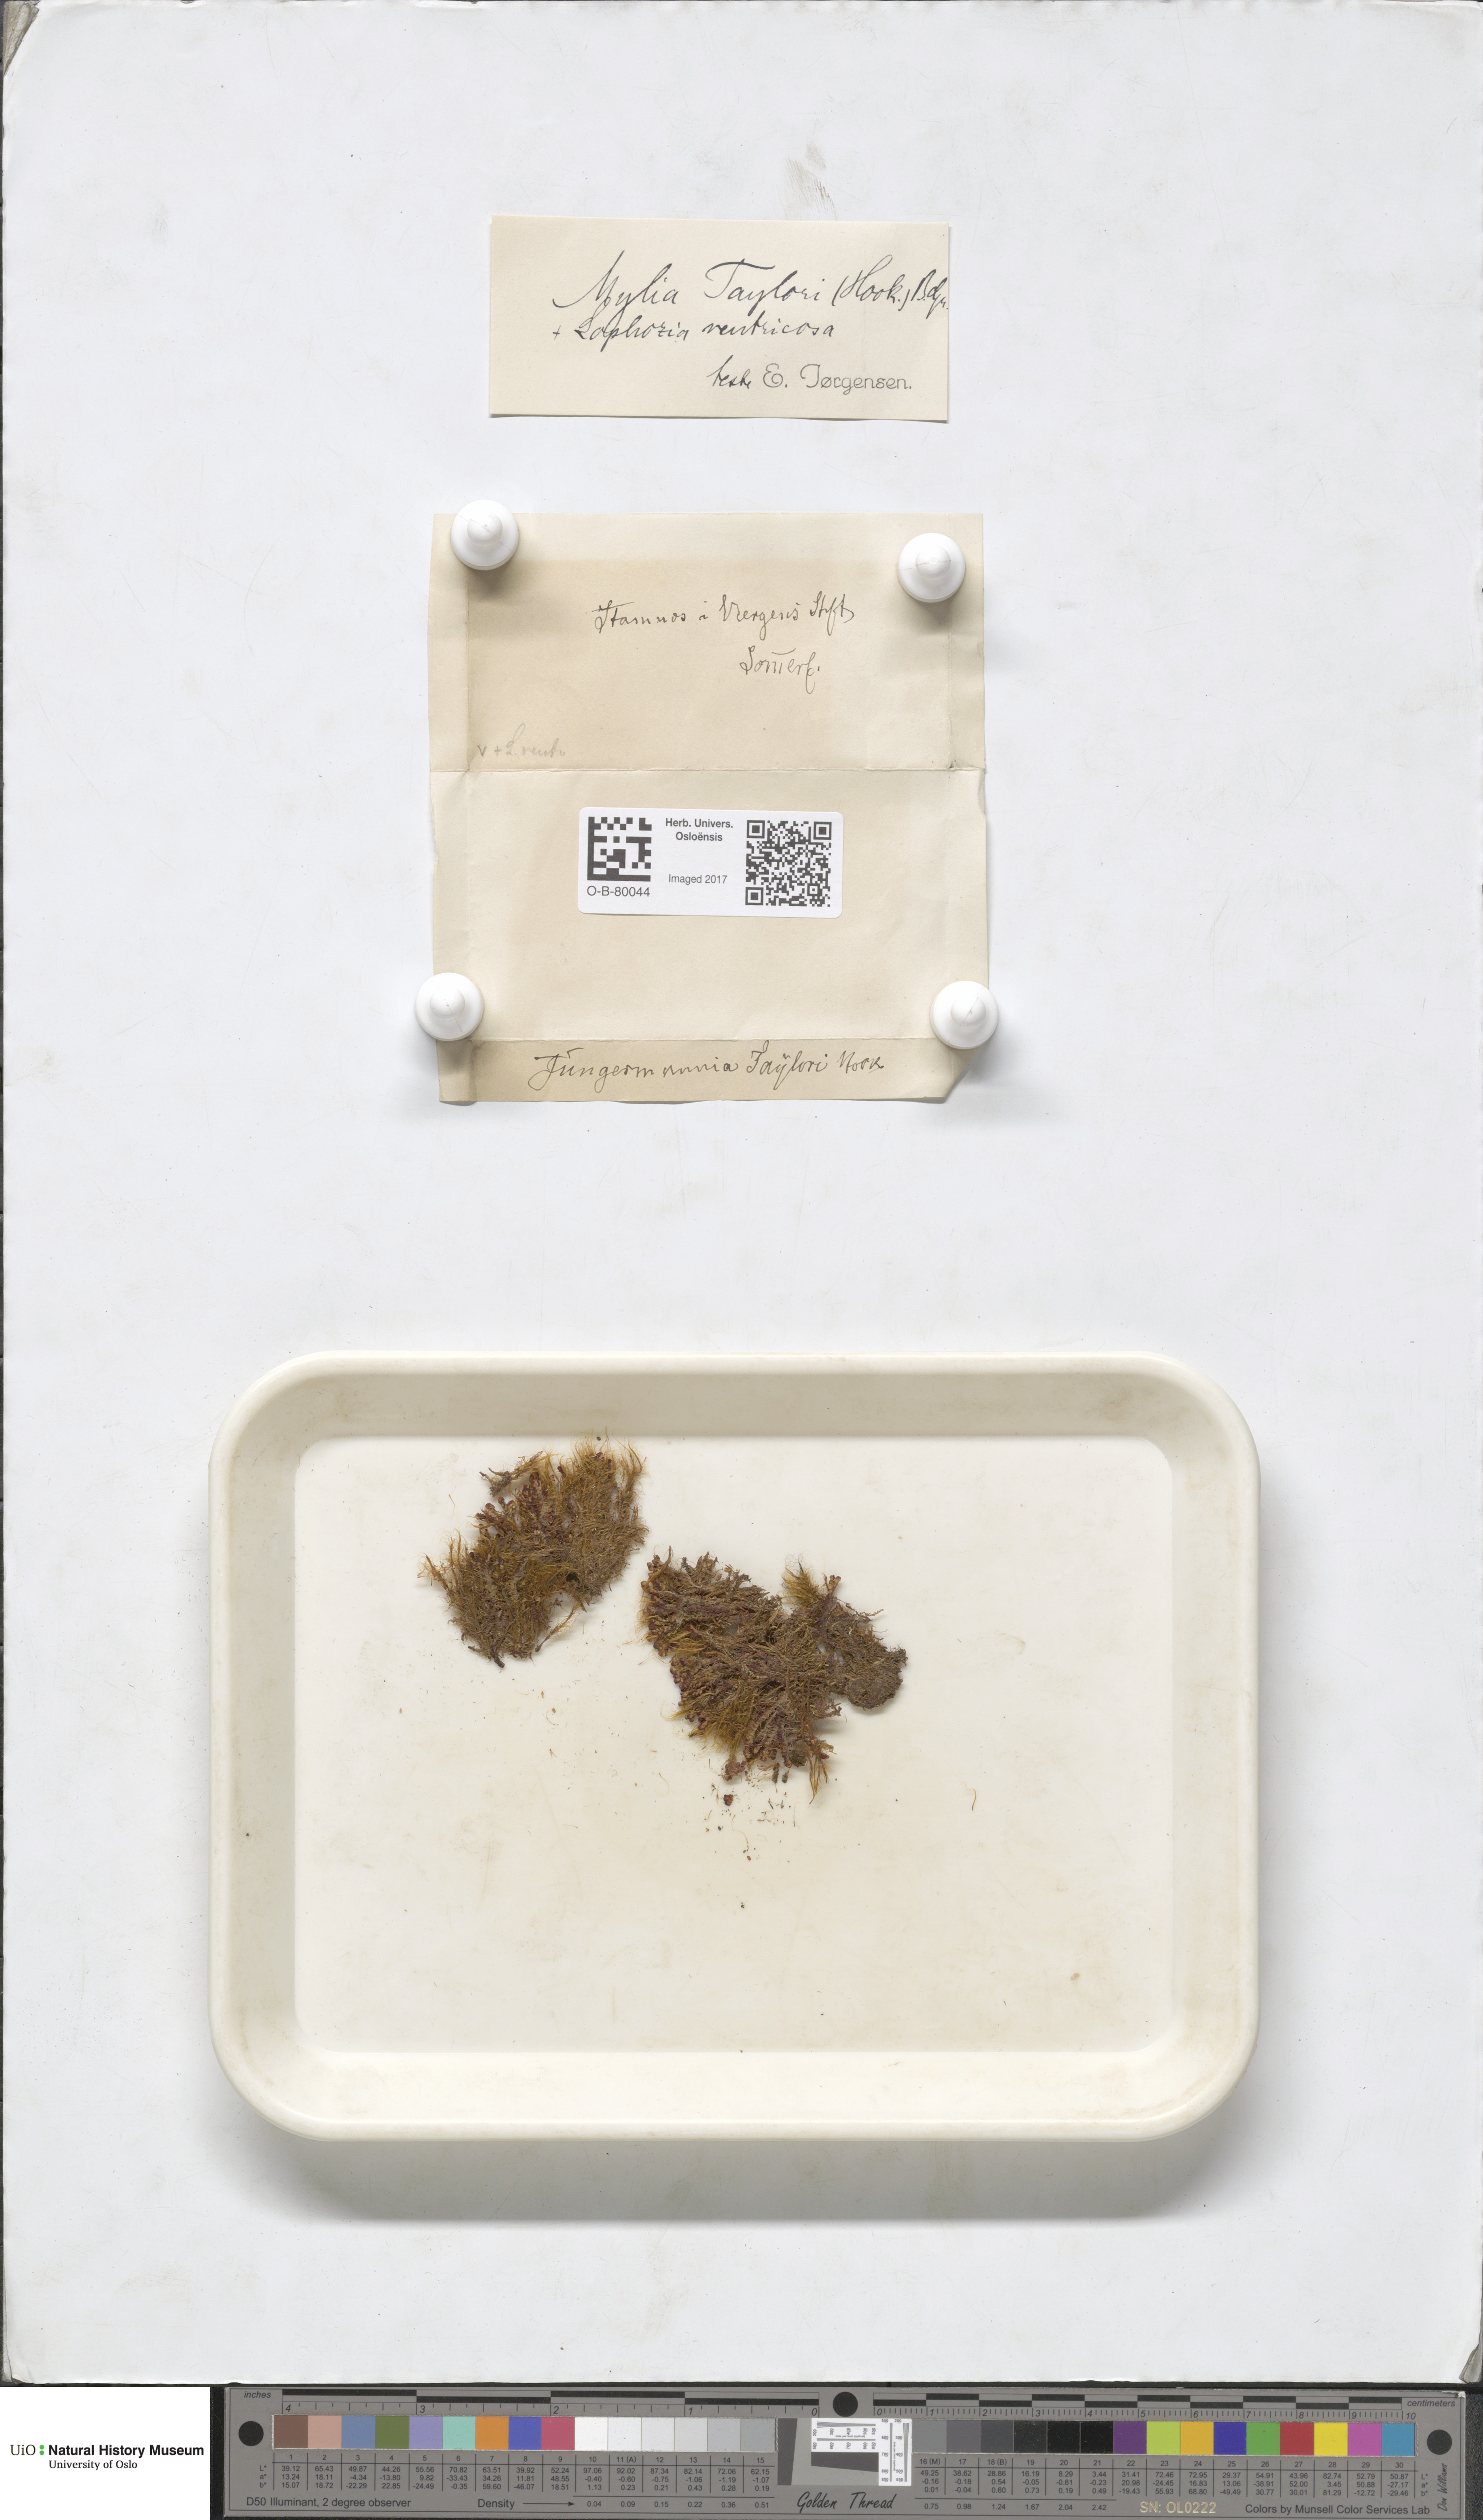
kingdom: Plantae
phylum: Marchantiophyta
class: Jungermanniopsida
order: Jungermanniales
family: Myliaceae
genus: Mylia
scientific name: Mylia taylorii
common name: Taylor s flapwort
